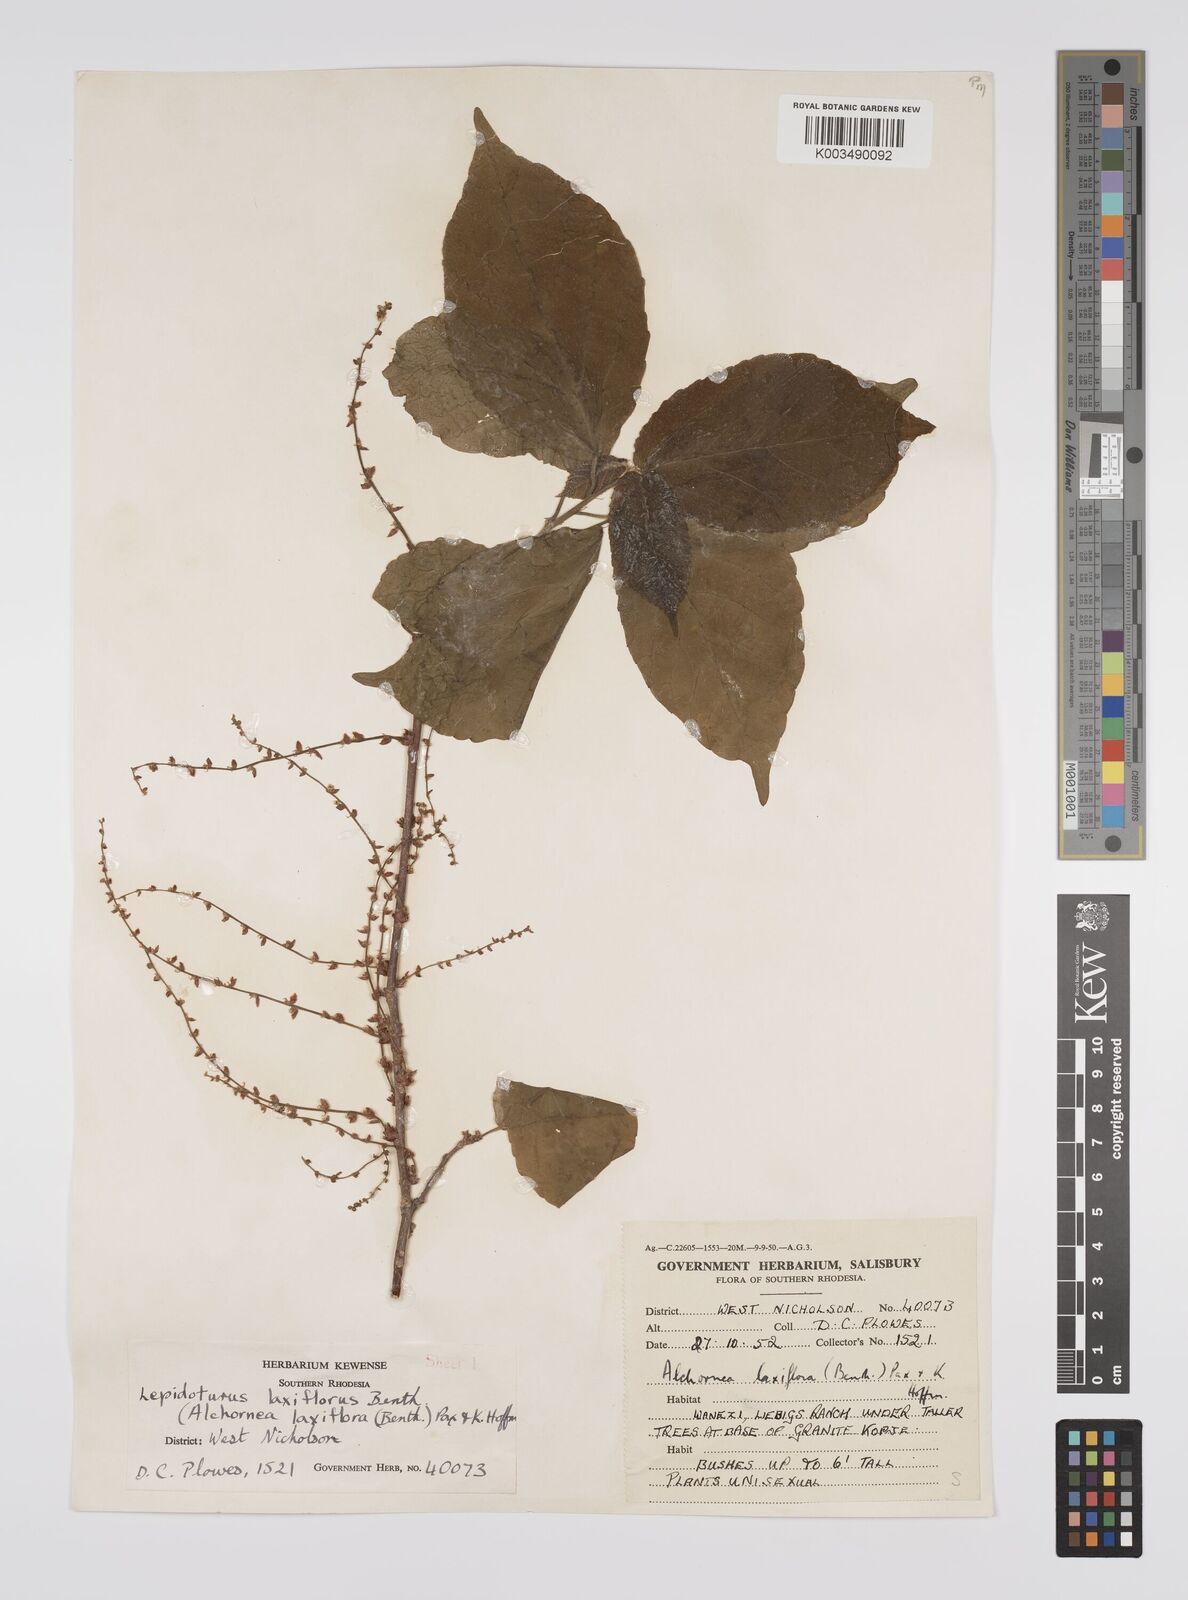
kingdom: Plantae
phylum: Tracheophyta
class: Magnoliopsida
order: Malpighiales
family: Euphorbiaceae
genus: Alchornea
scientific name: Alchornea laxiflora
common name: Lowveld bead-string
